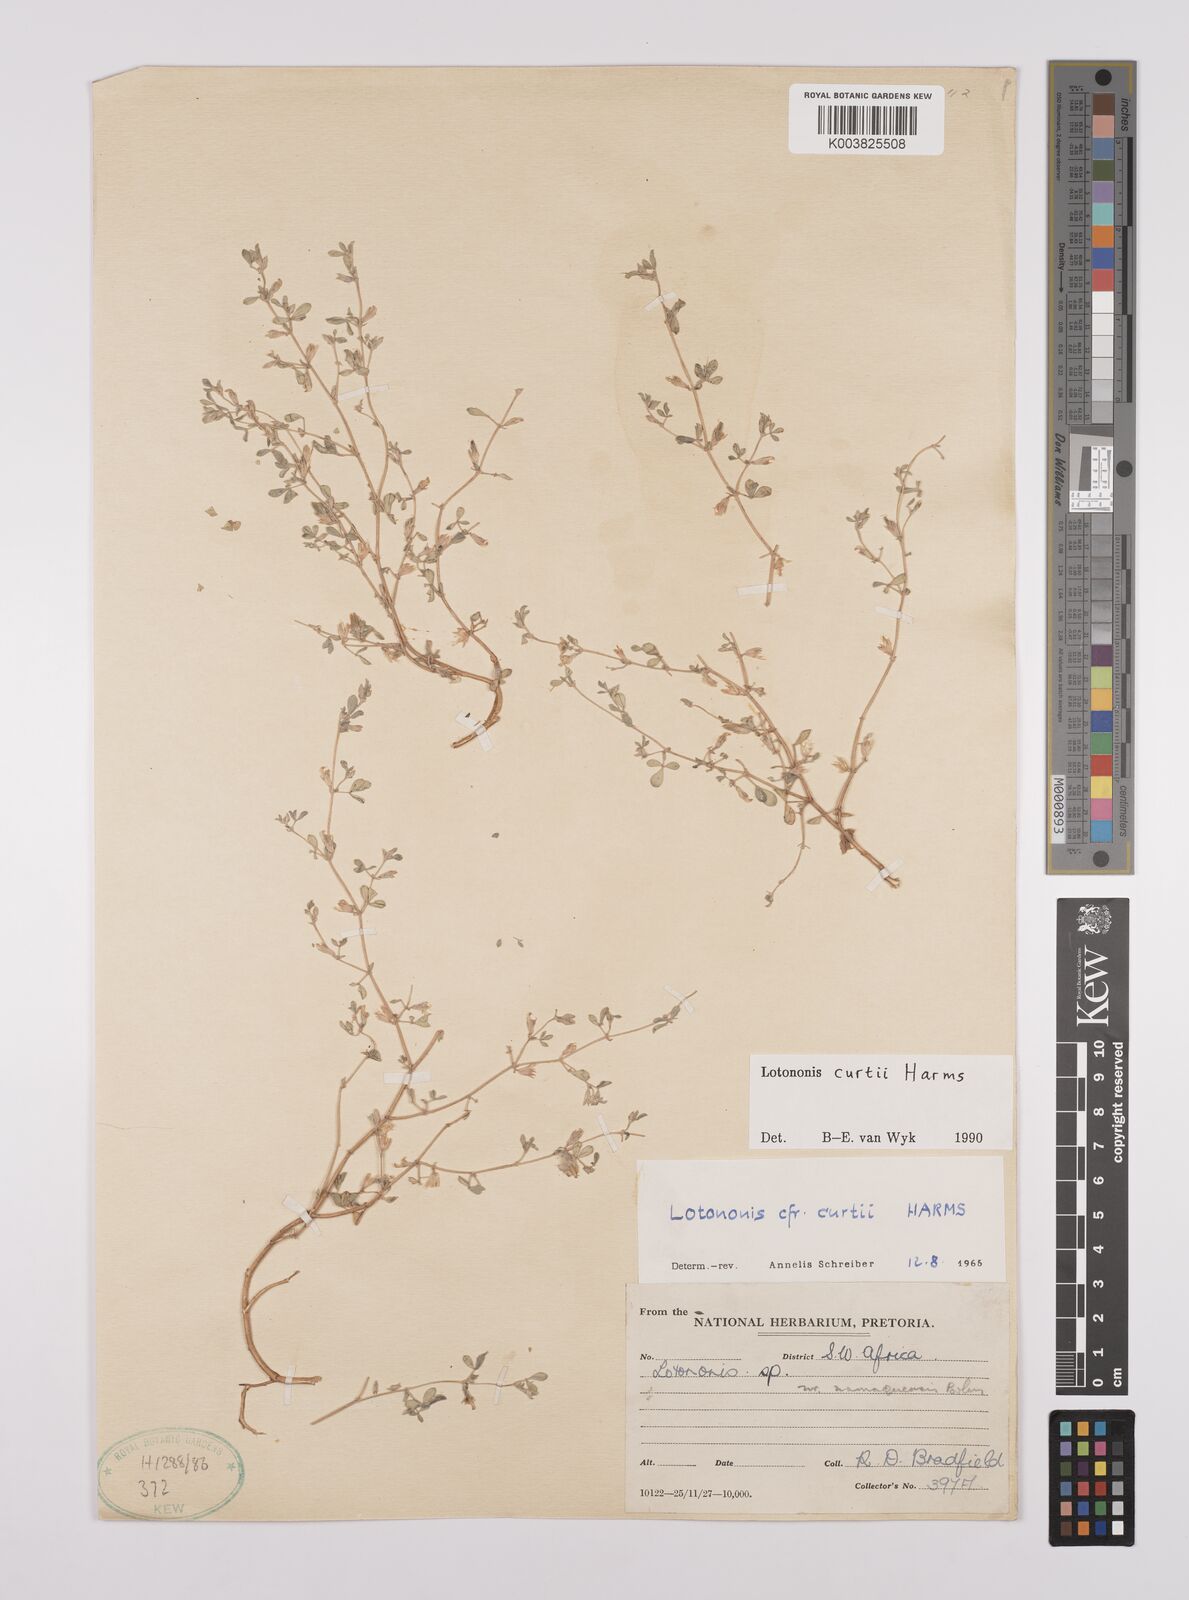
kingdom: Plantae
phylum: Tracheophyta
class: Magnoliopsida
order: Fabales
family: Fabaceae
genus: Lotononis
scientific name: Lotononis curtii
